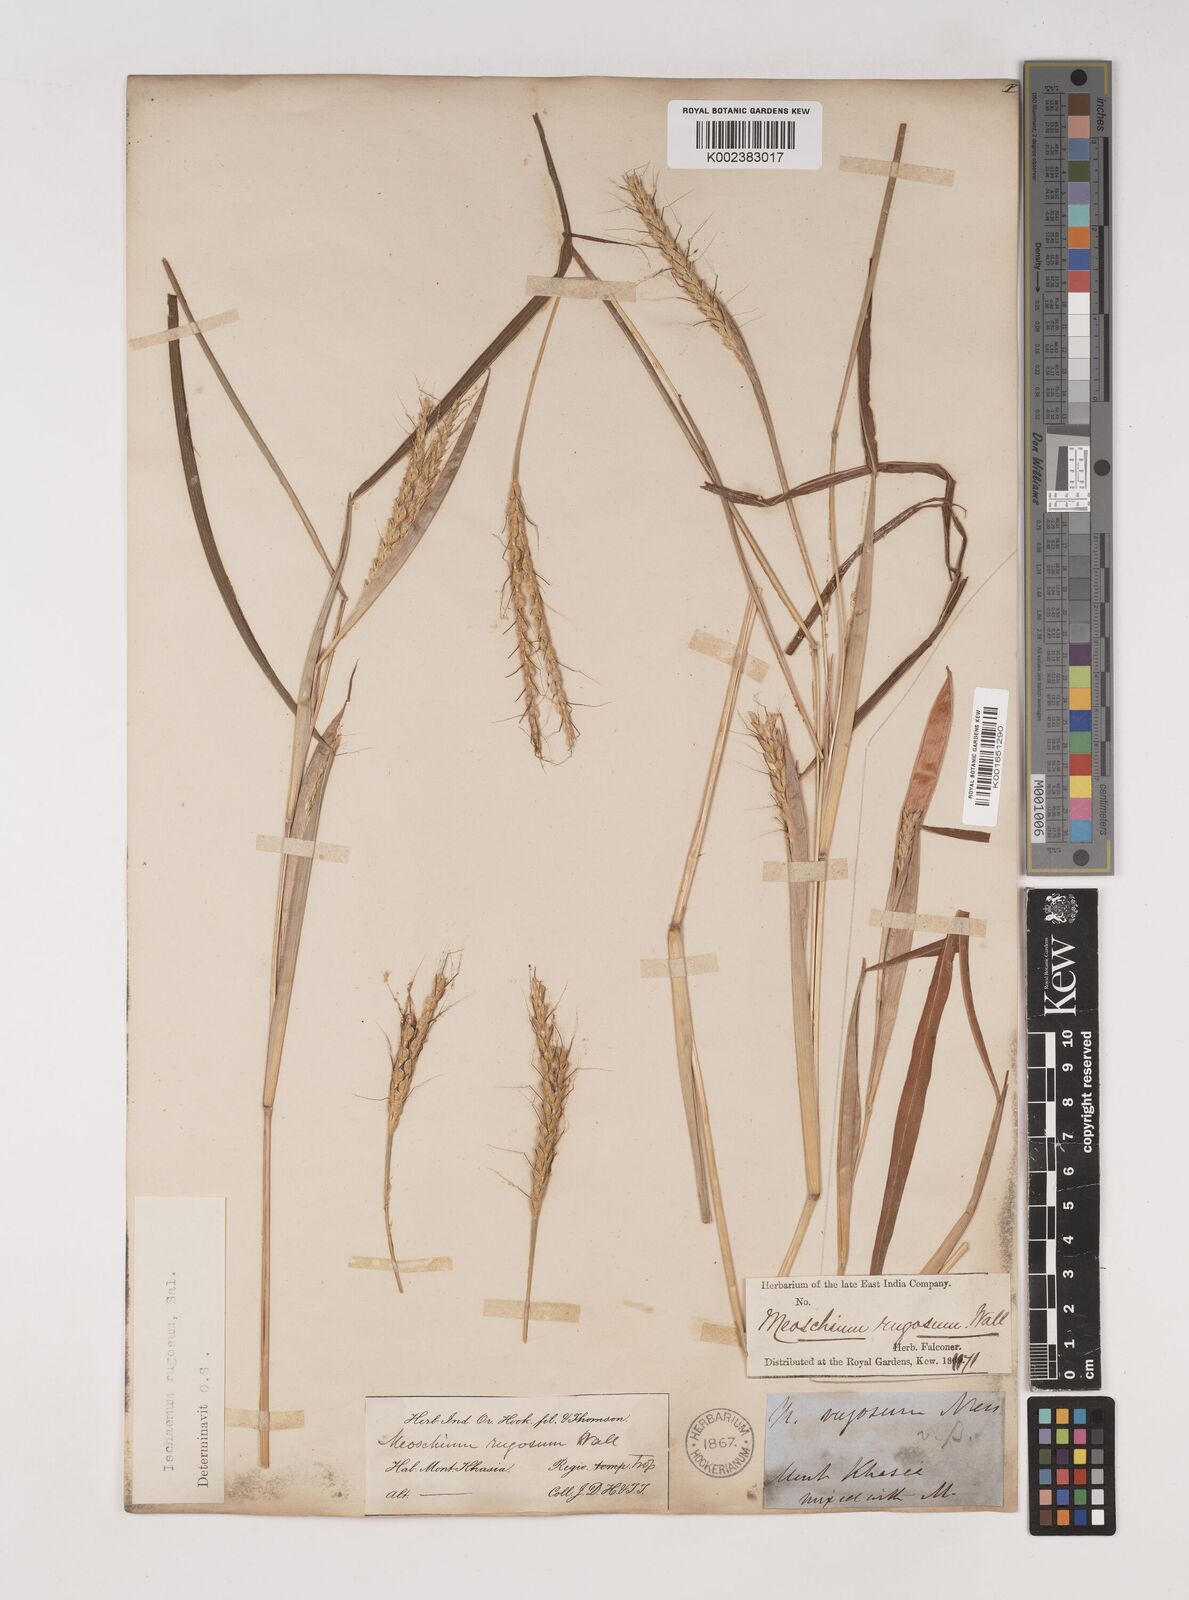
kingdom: Plantae
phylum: Tracheophyta
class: Liliopsida
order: Poales
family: Poaceae
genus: Ischaemum
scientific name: Ischaemum rugosum
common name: Saramatta grass
